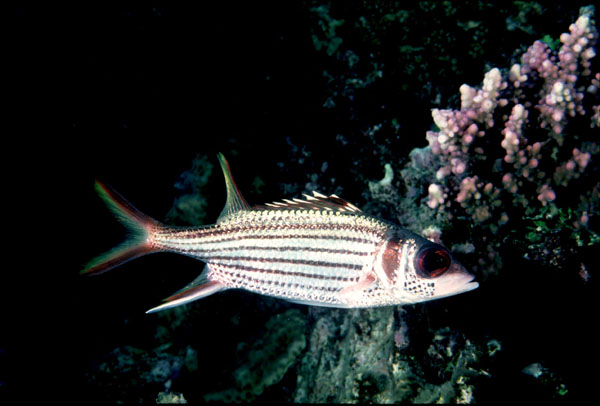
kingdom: Animalia
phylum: Chordata
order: Beryciformes
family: Holocentridae
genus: Neoniphon
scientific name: Neoniphon sammara
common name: Sammara squirrelfish
